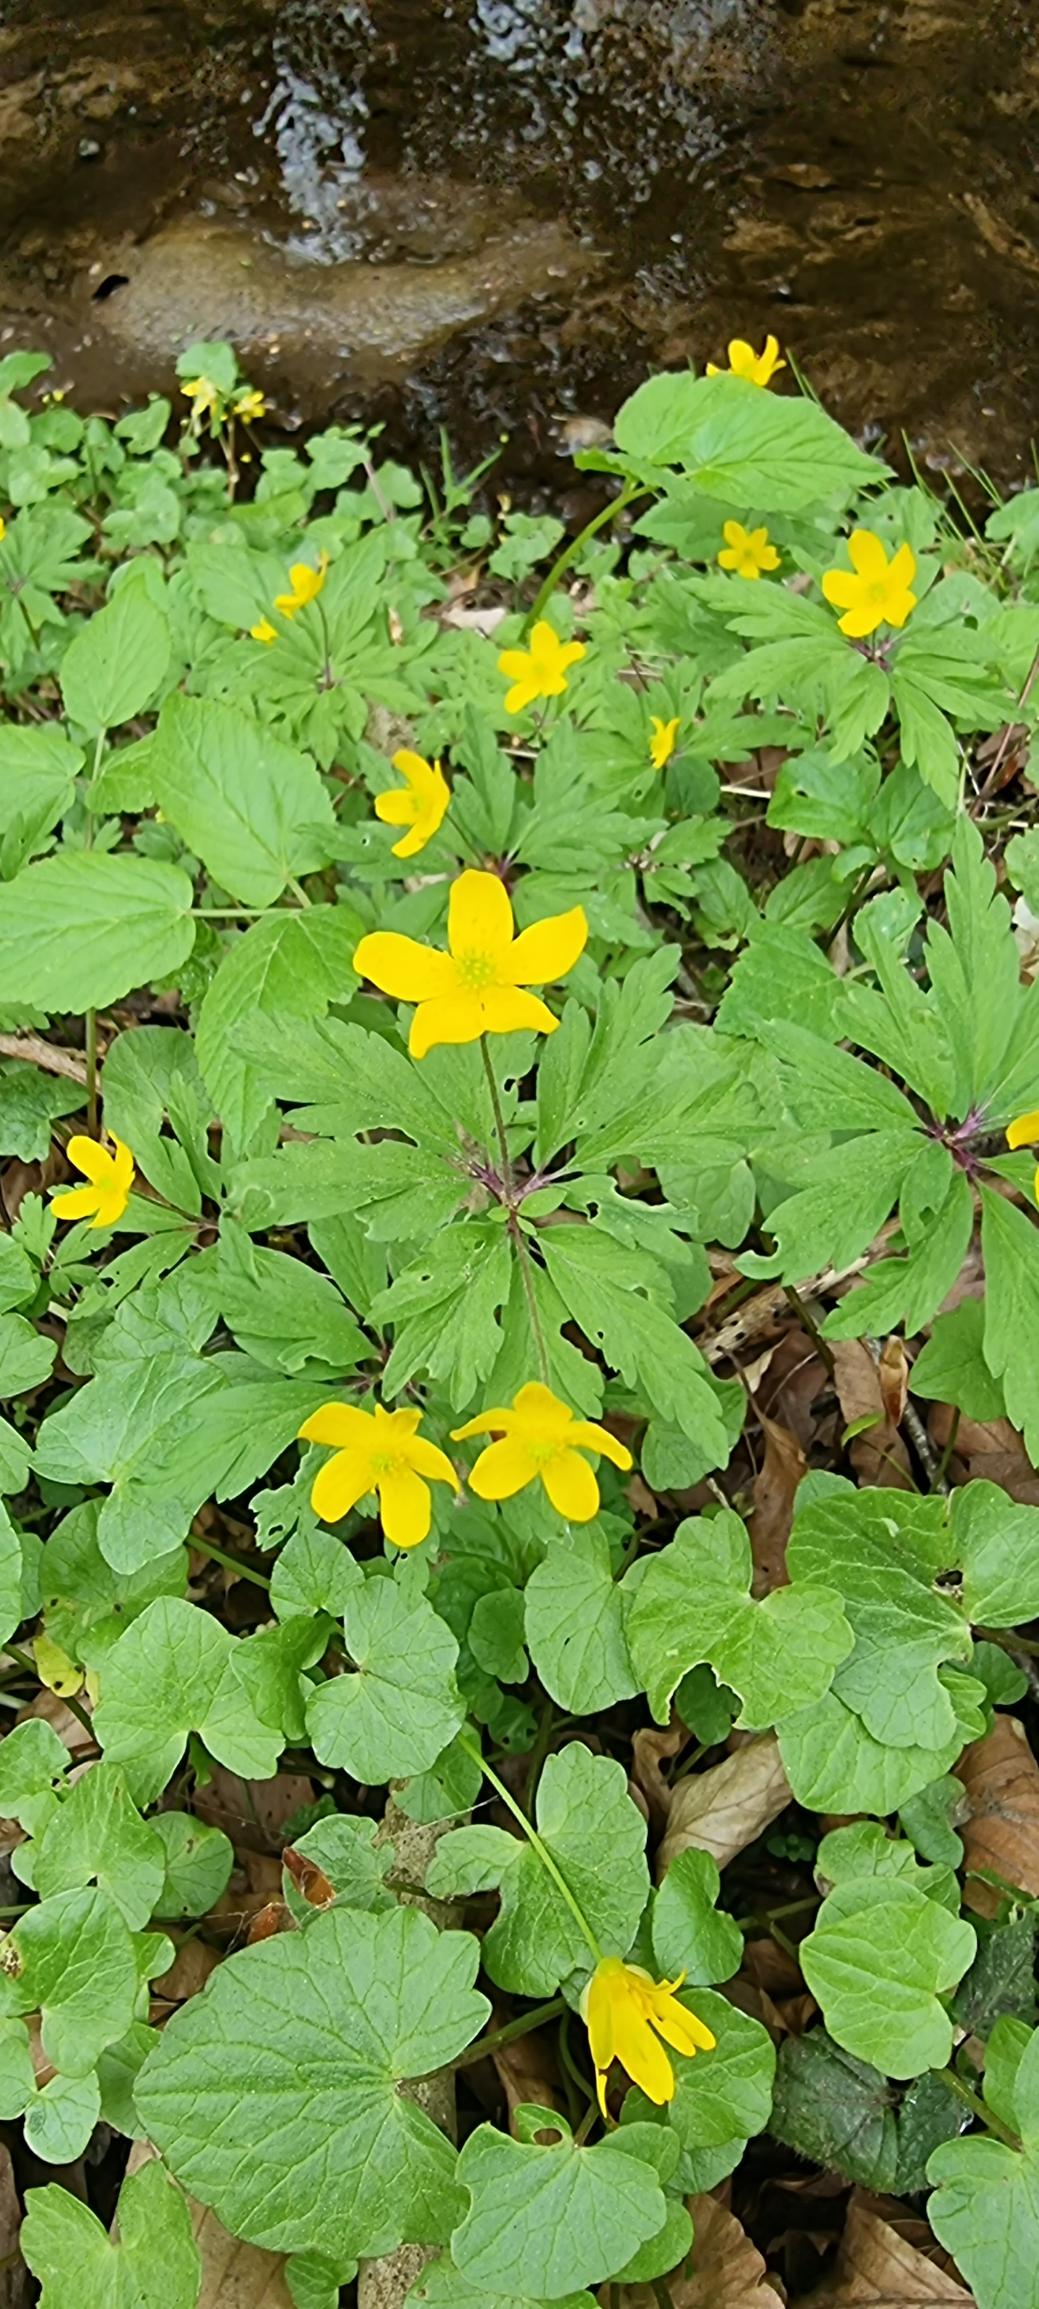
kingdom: Plantae
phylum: Tracheophyta
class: Magnoliopsida
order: Ranunculales
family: Ranunculaceae
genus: Anemone
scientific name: Anemone ranunculoides
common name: Gul anemone
